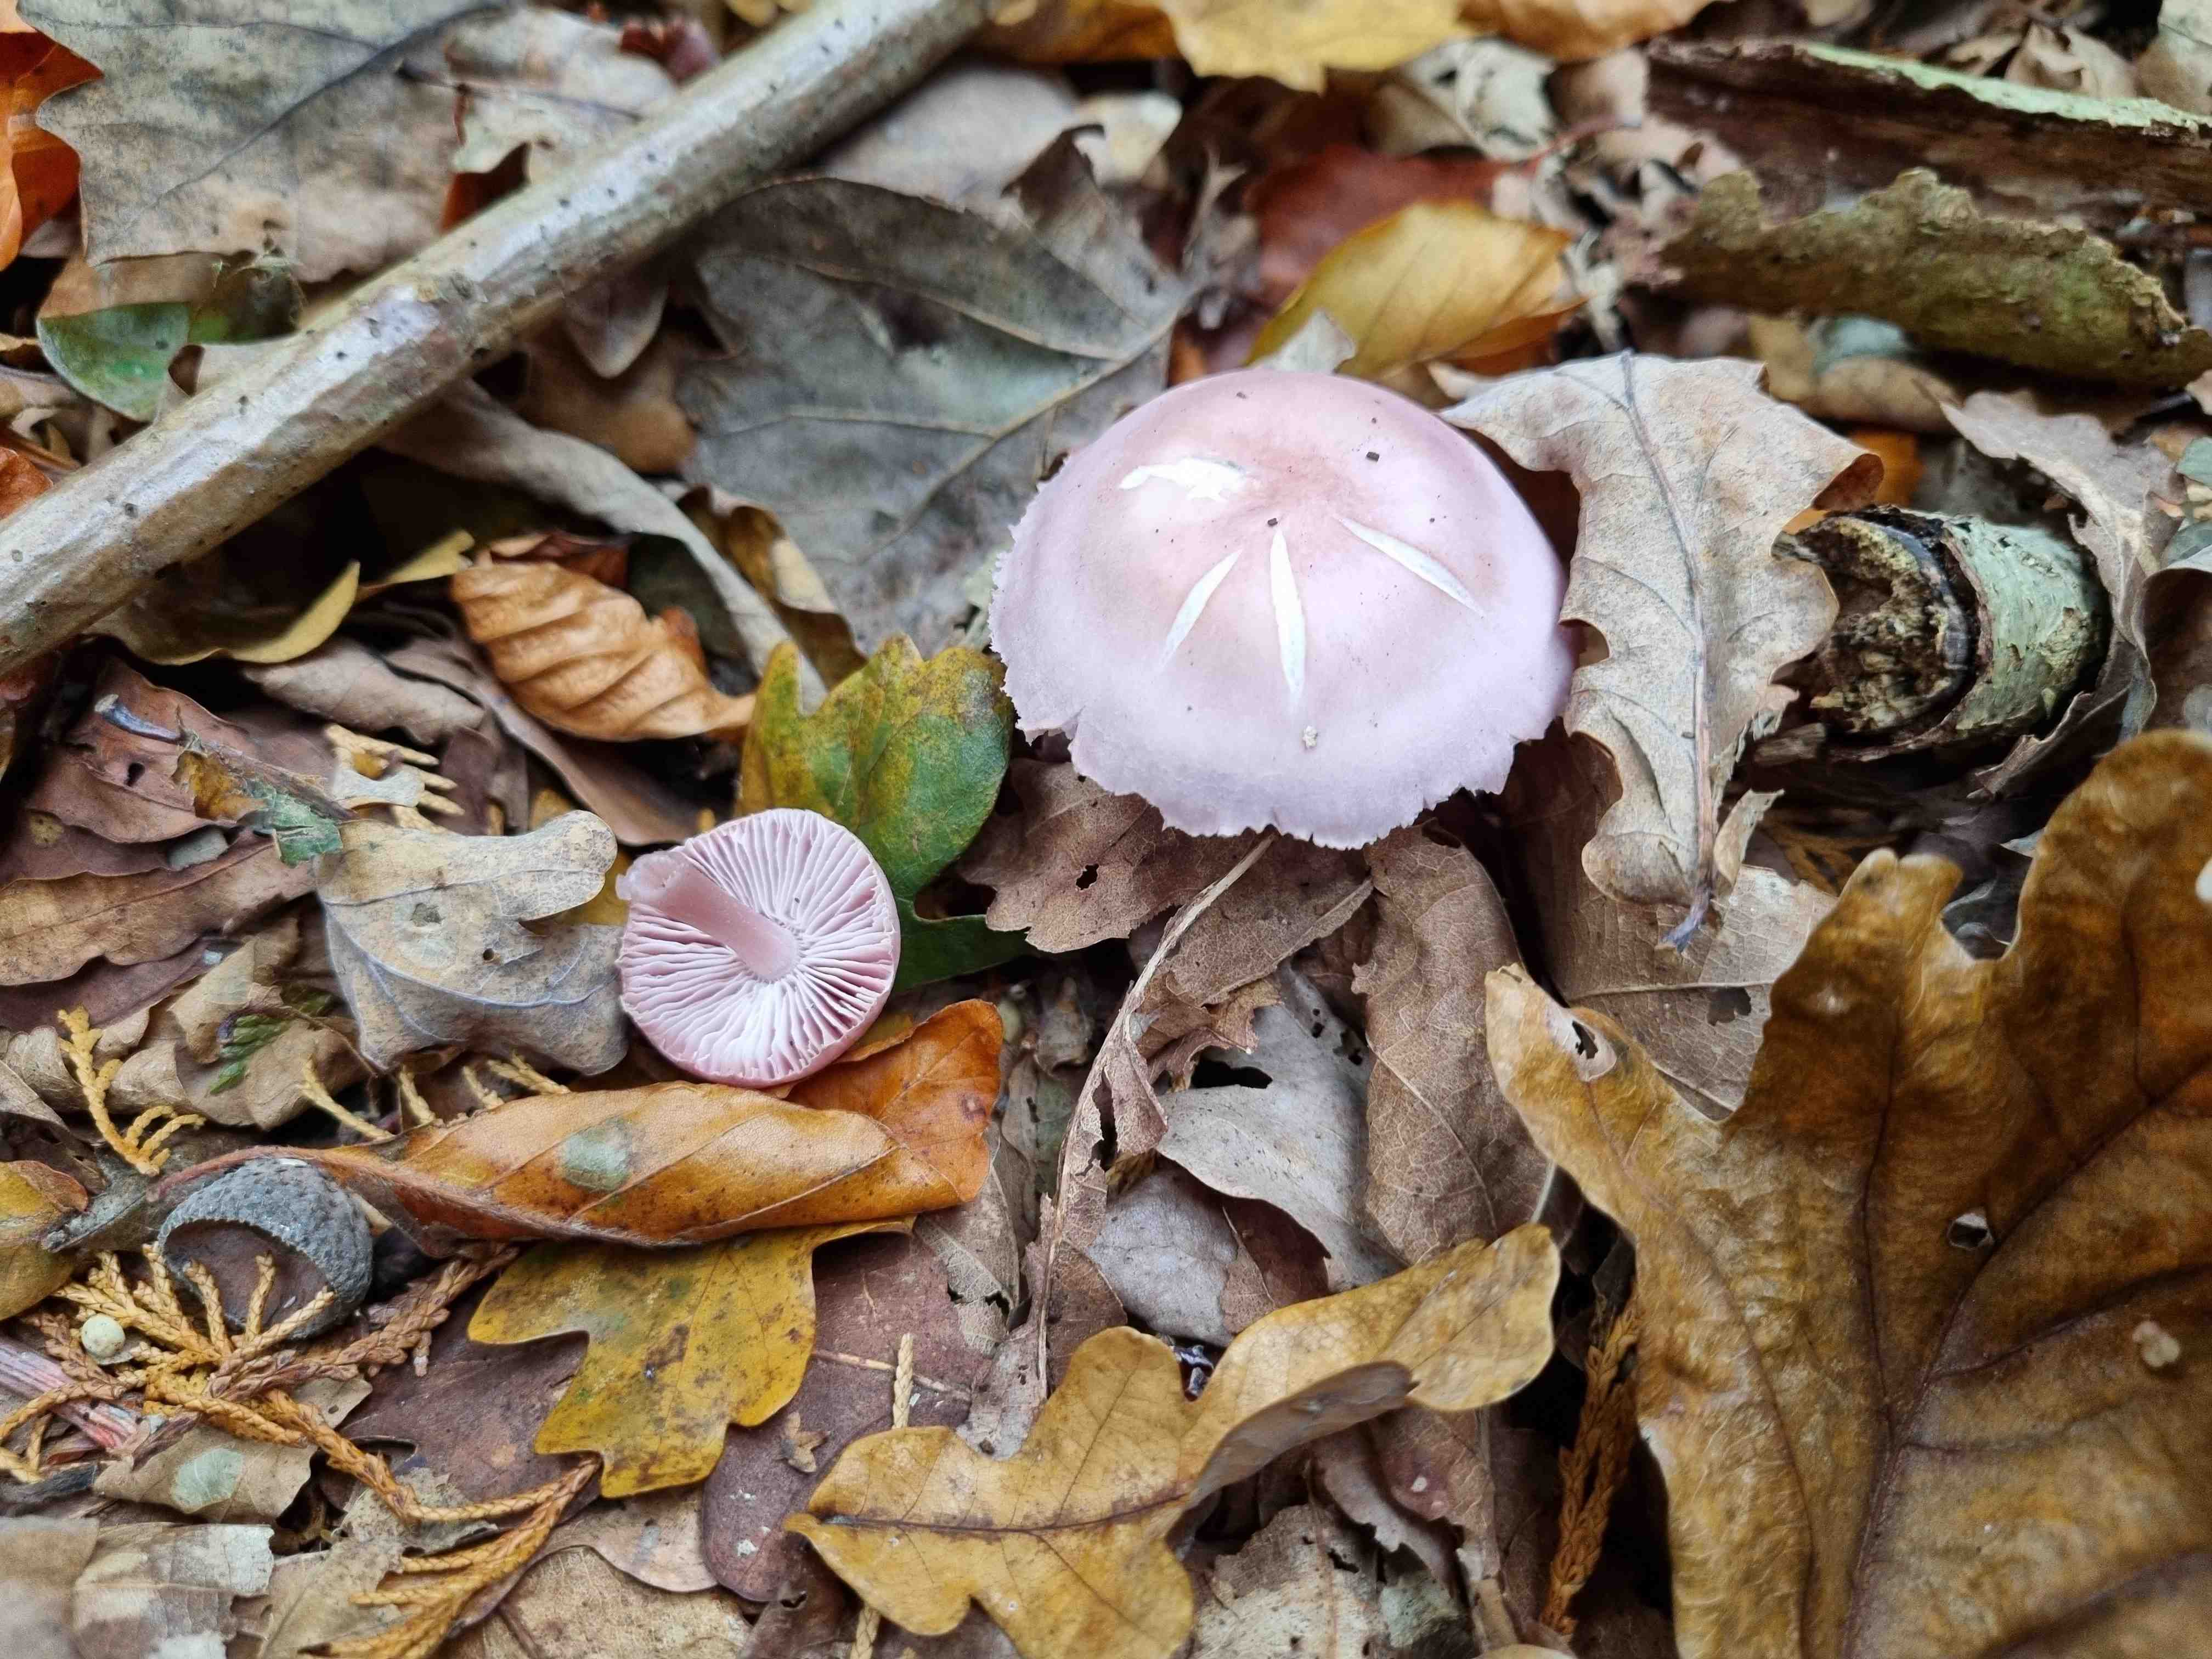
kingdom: Fungi
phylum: Basidiomycota
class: Agaricomycetes
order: Agaricales
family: Mycenaceae
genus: Mycena
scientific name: Mycena rosea
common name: rosa huesvamp
